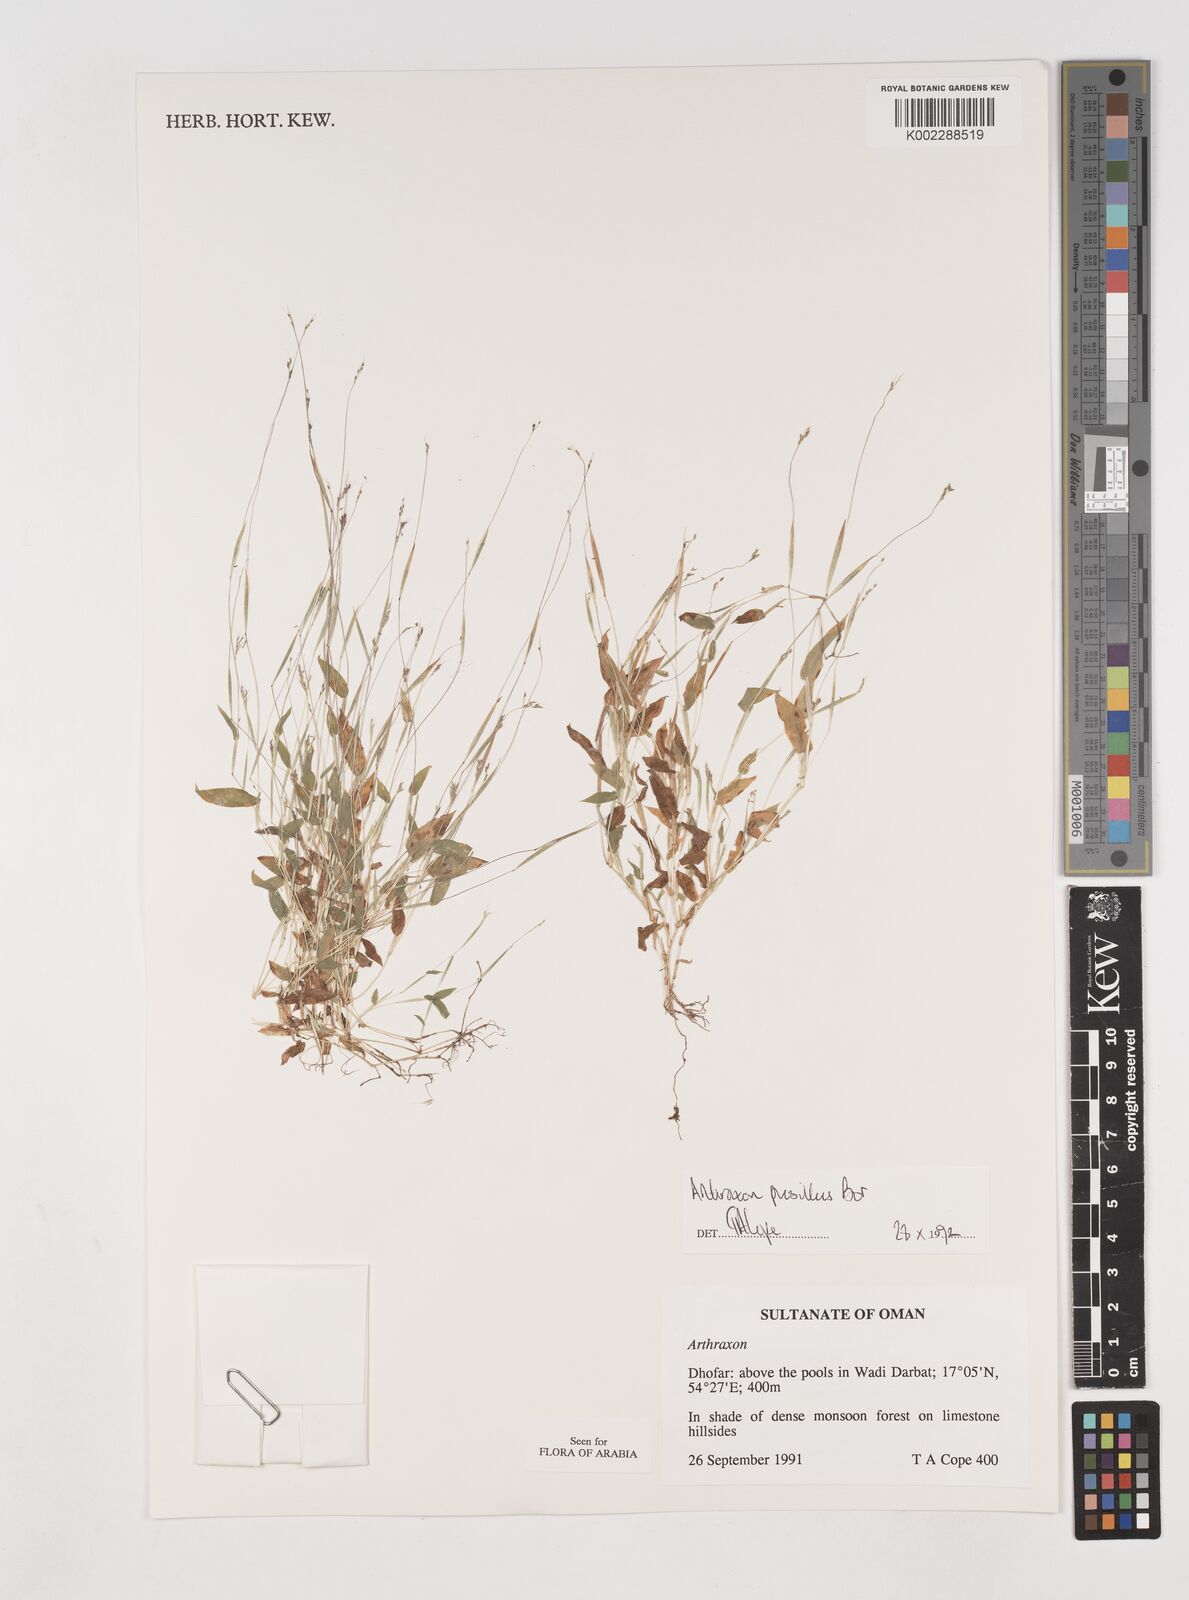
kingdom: Plantae
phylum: Tracheophyta
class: Liliopsida
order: Poales
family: Poaceae
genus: Arthraxon
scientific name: Arthraxon junnarensis
